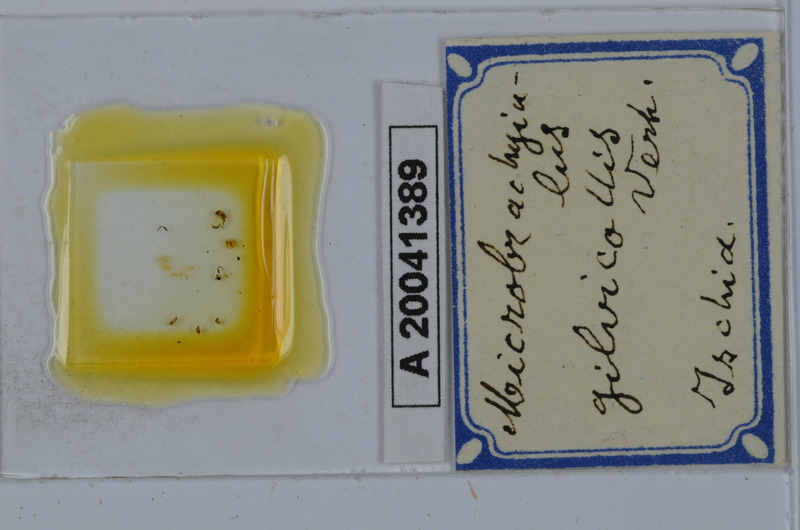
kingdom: Animalia
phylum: Arthropoda
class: Diplopoda
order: Julida
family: Julidae
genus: Brachyiulus
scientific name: Brachyiulus stuxbergi
